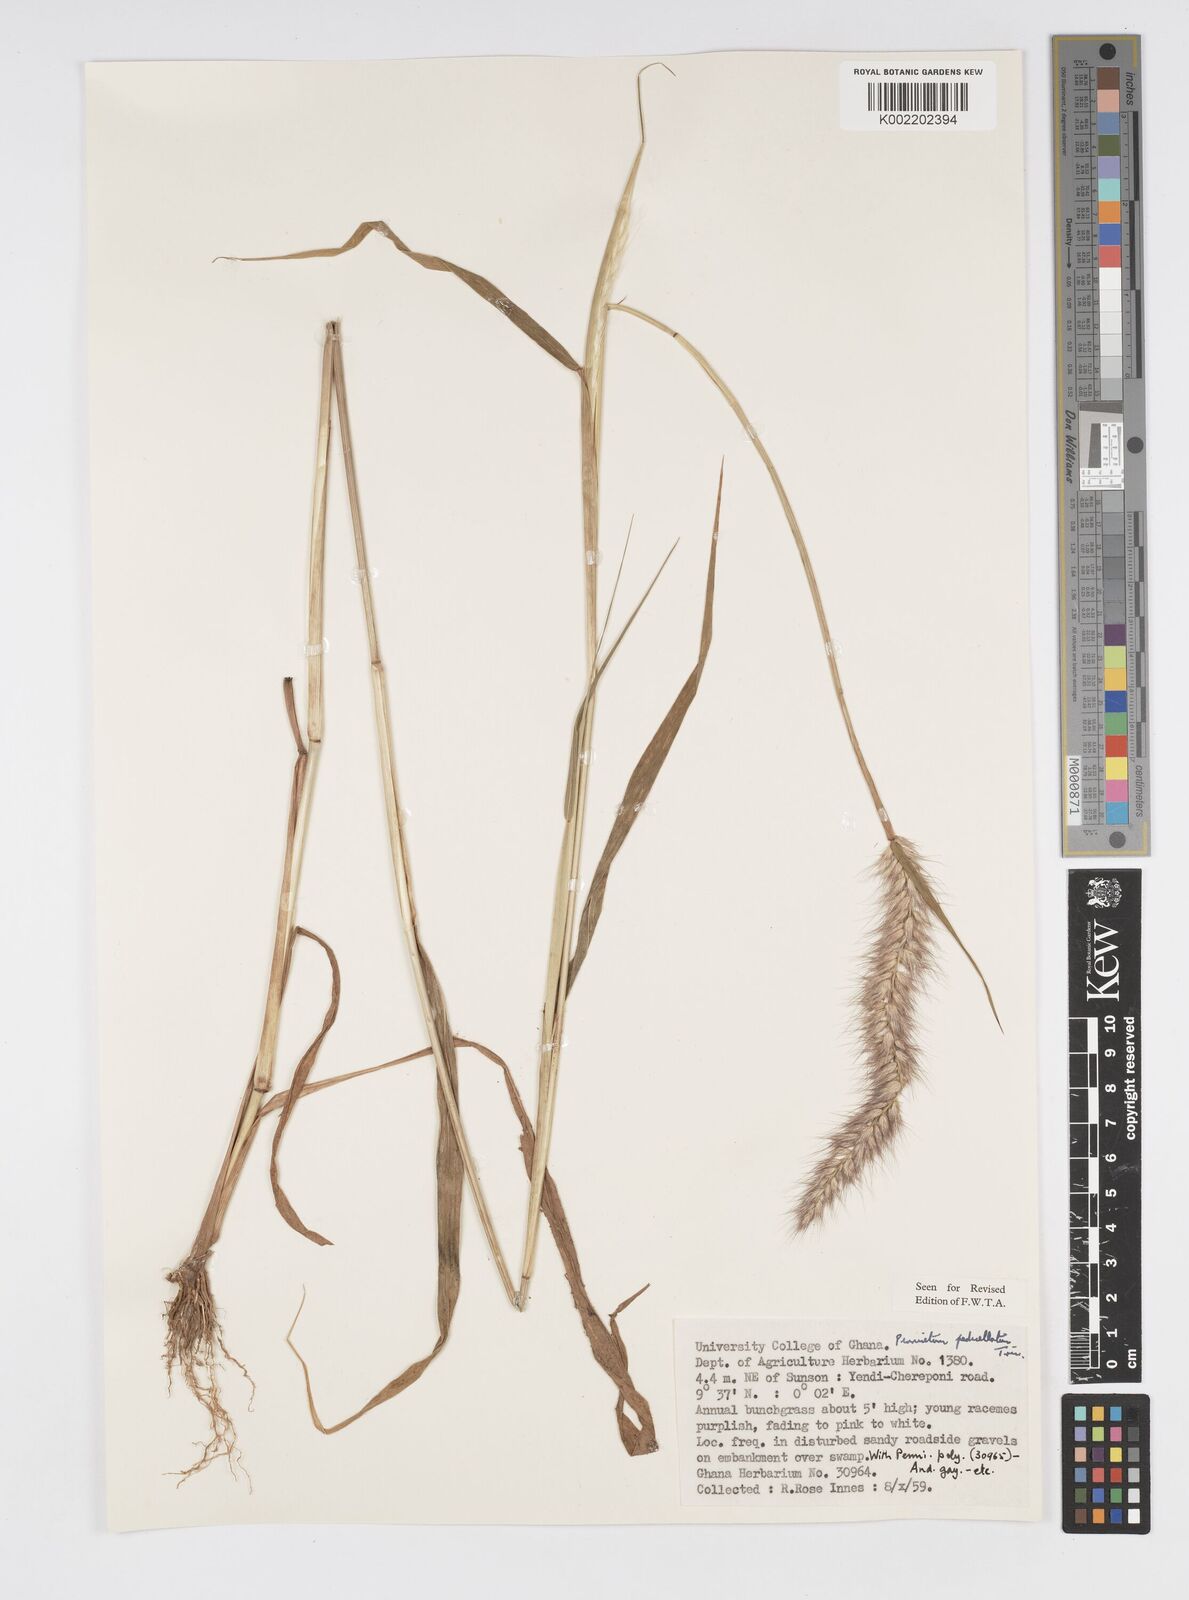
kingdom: Plantae
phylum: Tracheophyta
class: Liliopsida
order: Poales
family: Poaceae
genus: Cenchrus
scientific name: Cenchrus pedicellatus
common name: Hairy fountain grass
